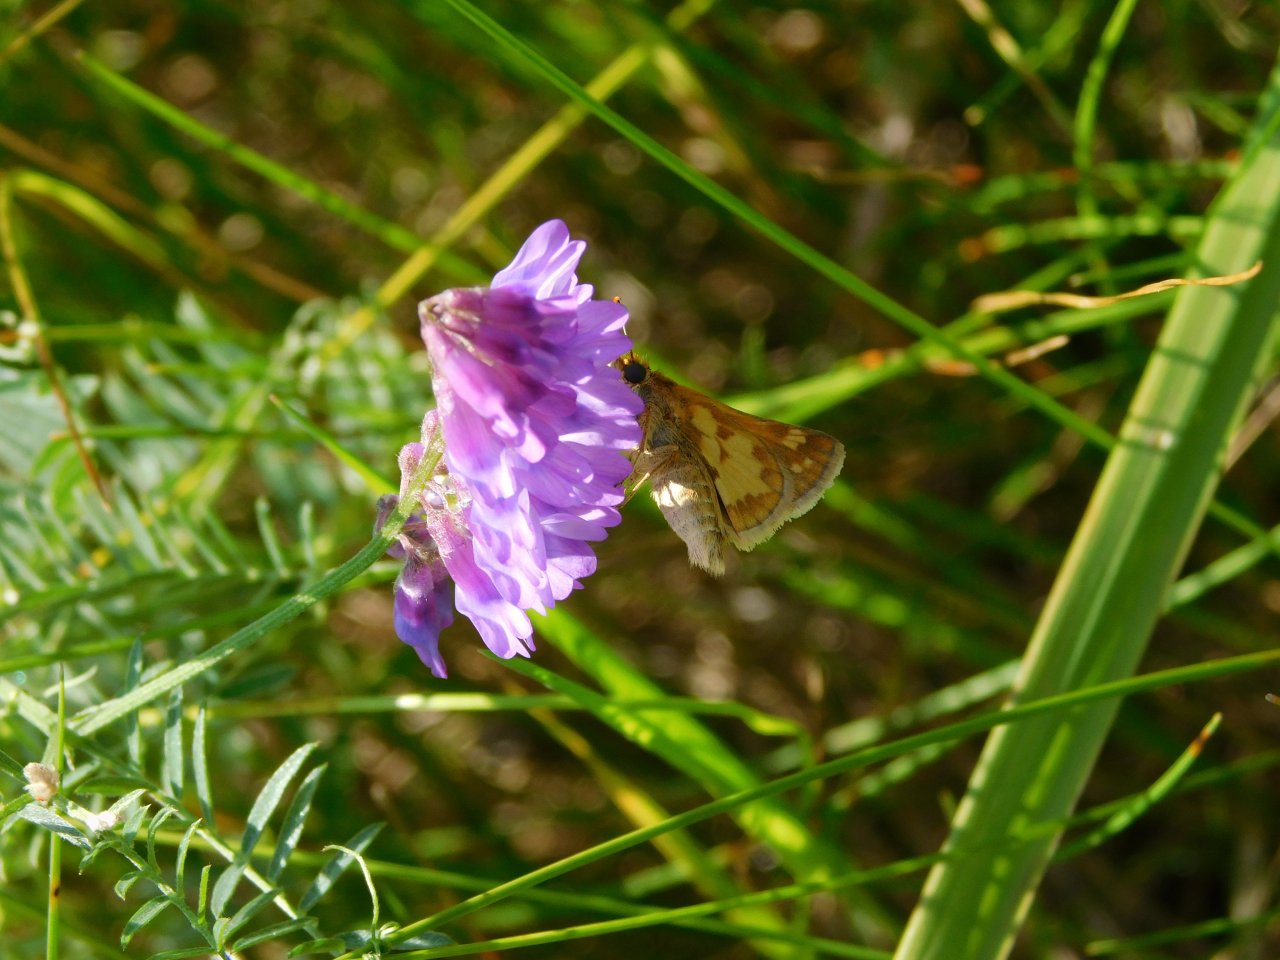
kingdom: Animalia
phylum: Arthropoda
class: Insecta
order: Lepidoptera
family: Hesperiidae
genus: Polites
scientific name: Polites coras
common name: Peck's Skipper
